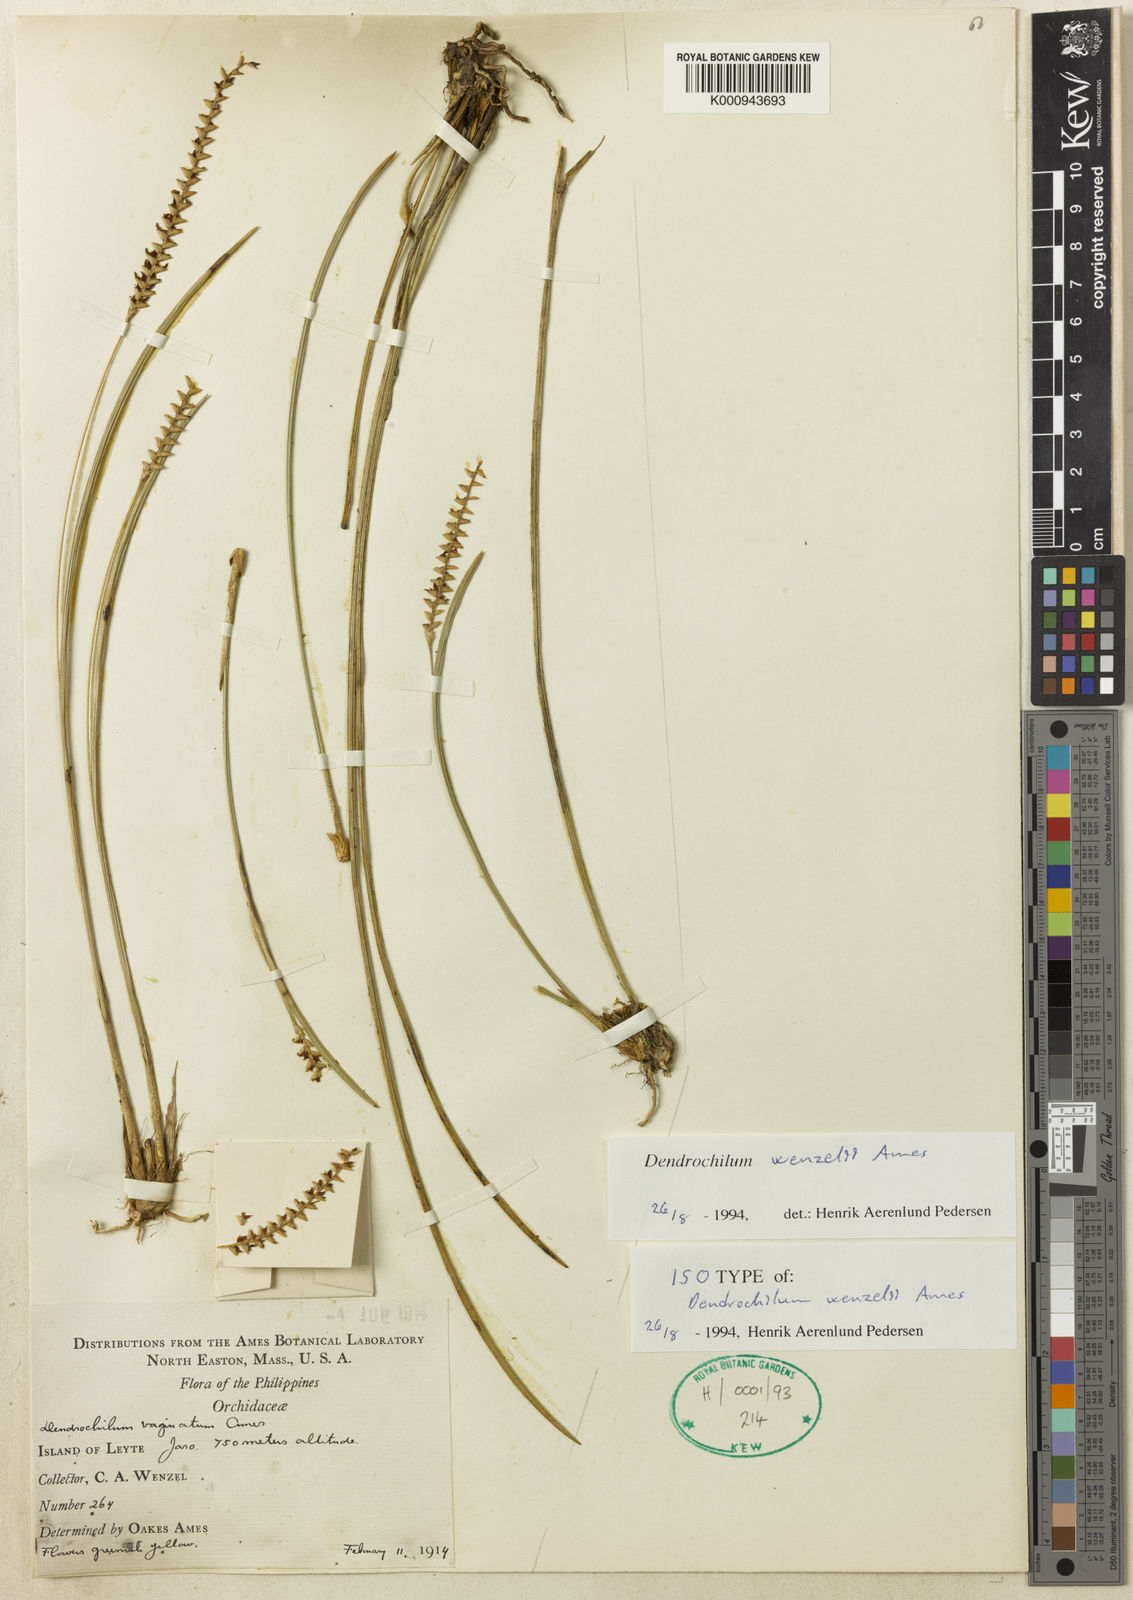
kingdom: Plantae
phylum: Tracheophyta
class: Liliopsida
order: Asparagales
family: Orchidaceae
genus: Coelogyne
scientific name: Coelogyne wenzelii
